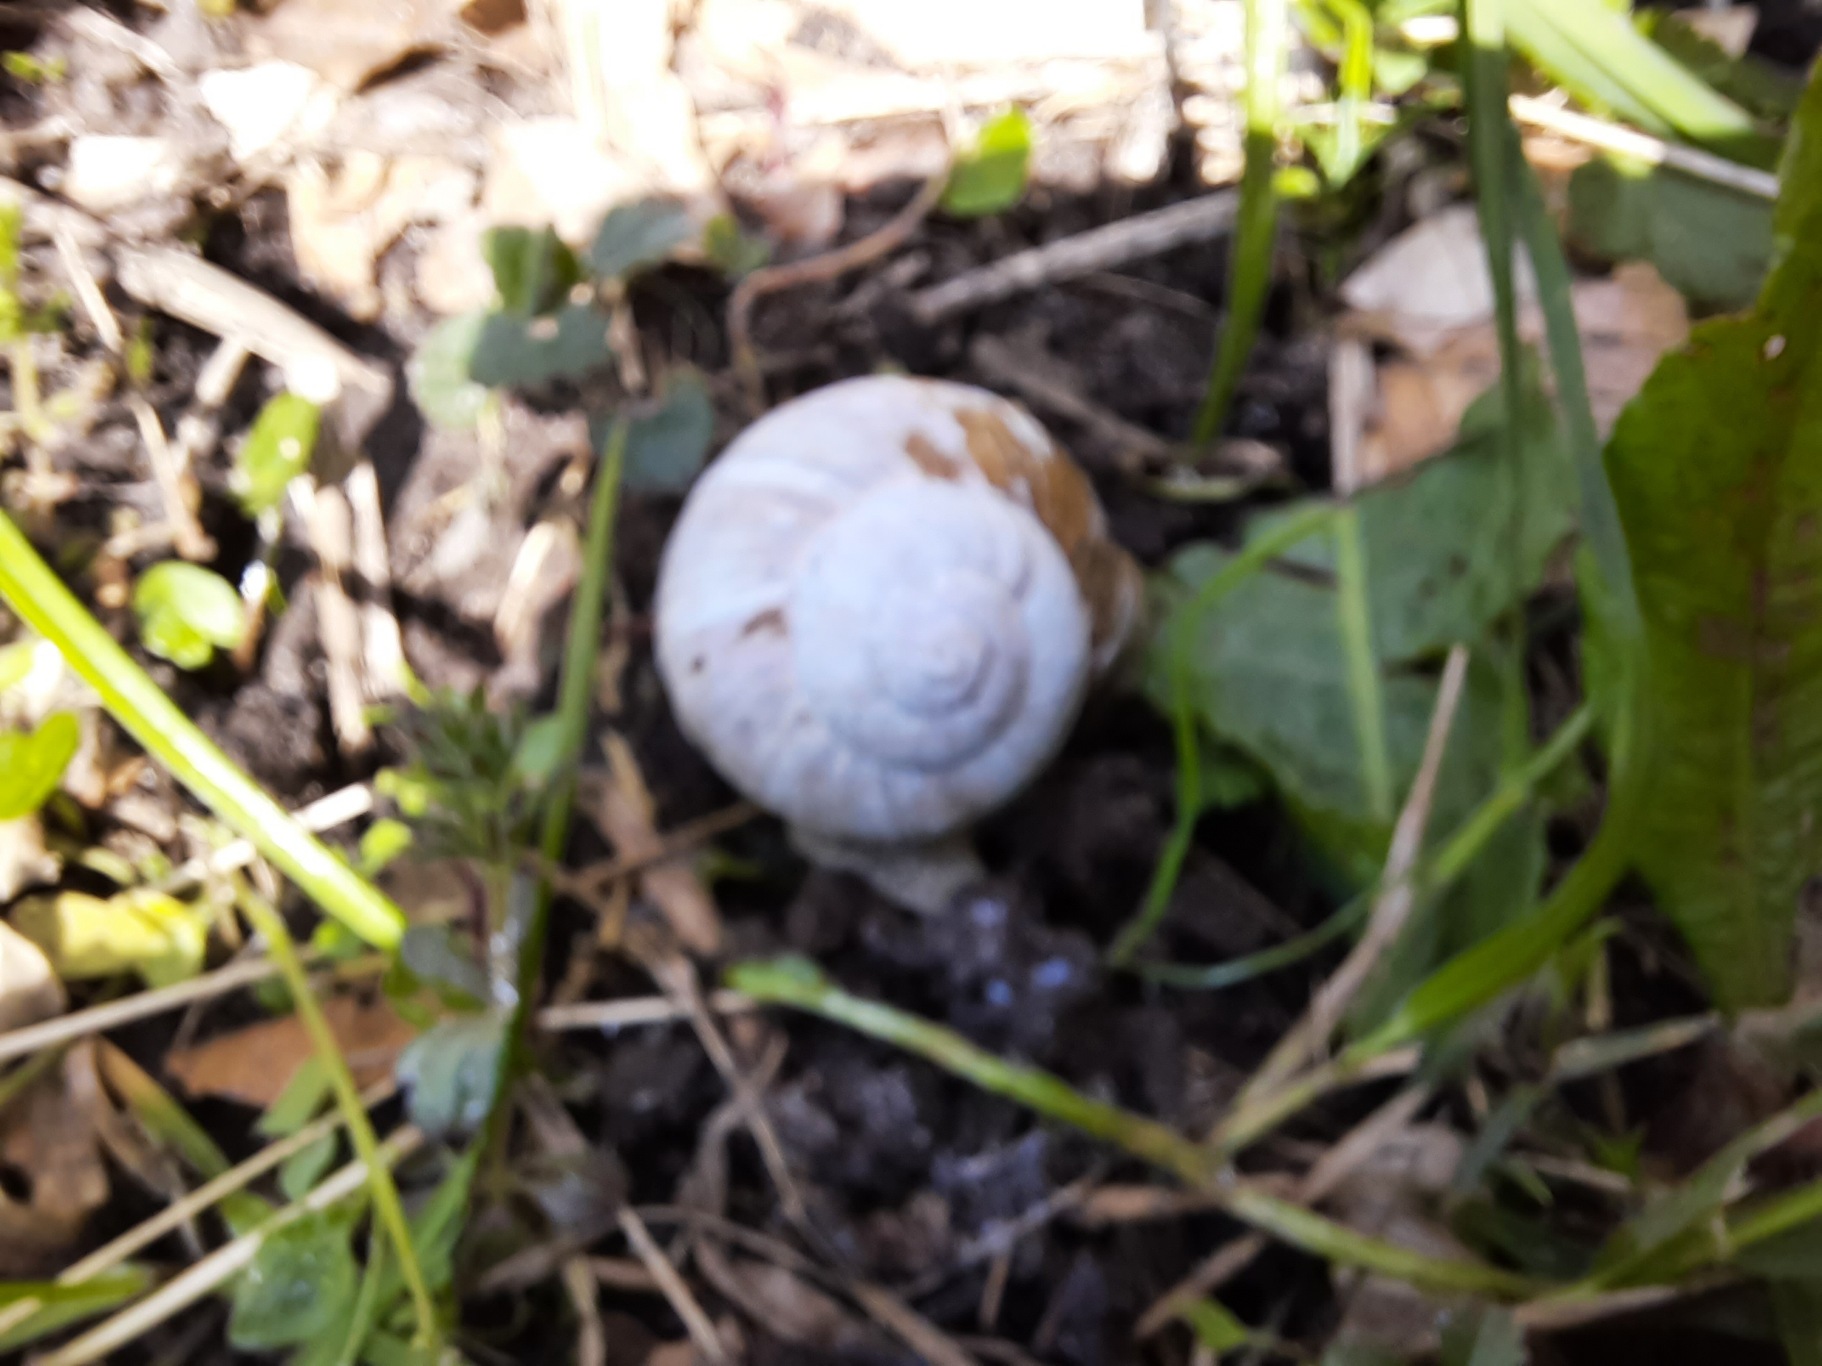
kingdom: Animalia
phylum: Mollusca
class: Gastropoda
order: Stylommatophora
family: Helicidae
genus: Helix
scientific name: Helix pomatia
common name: Vinbjergsnegl
